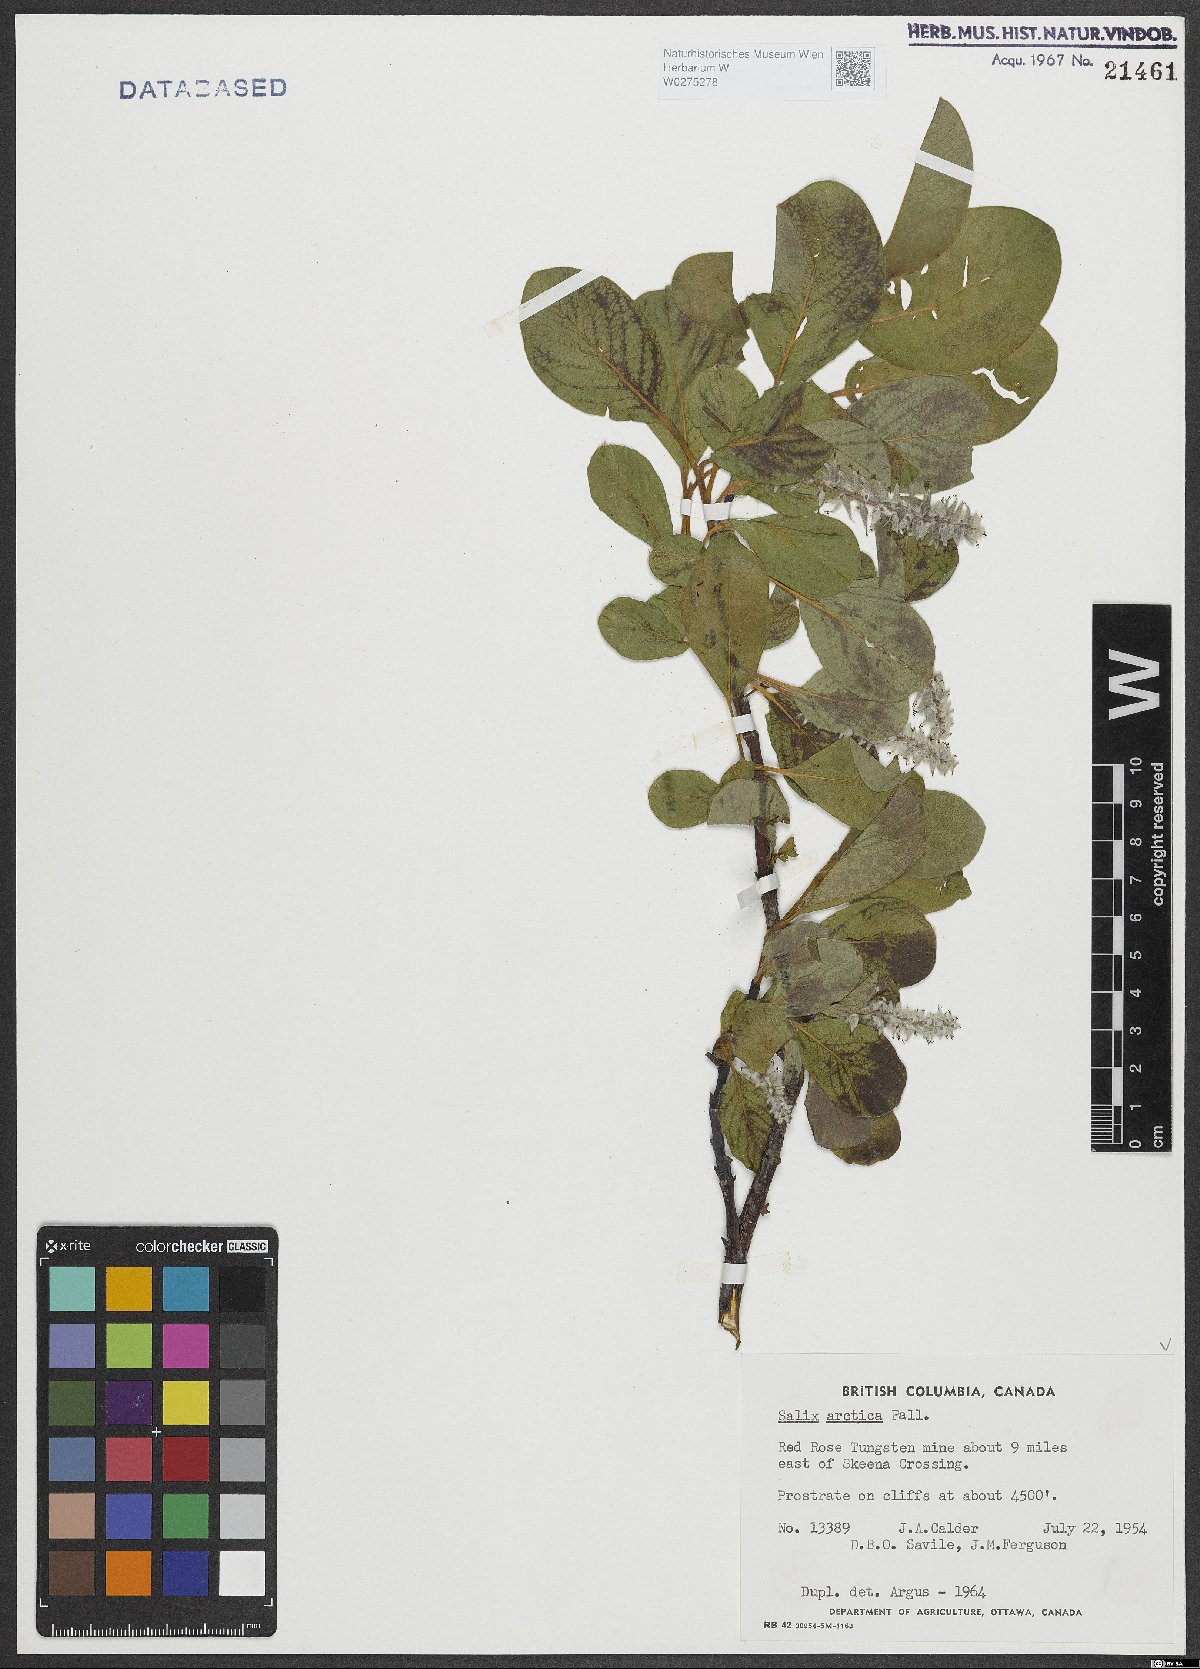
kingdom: Plantae
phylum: Tracheophyta
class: Magnoliopsida
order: Malpighiales
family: Salicaceae
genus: Salix
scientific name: Salix arctica
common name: Arctic willow
